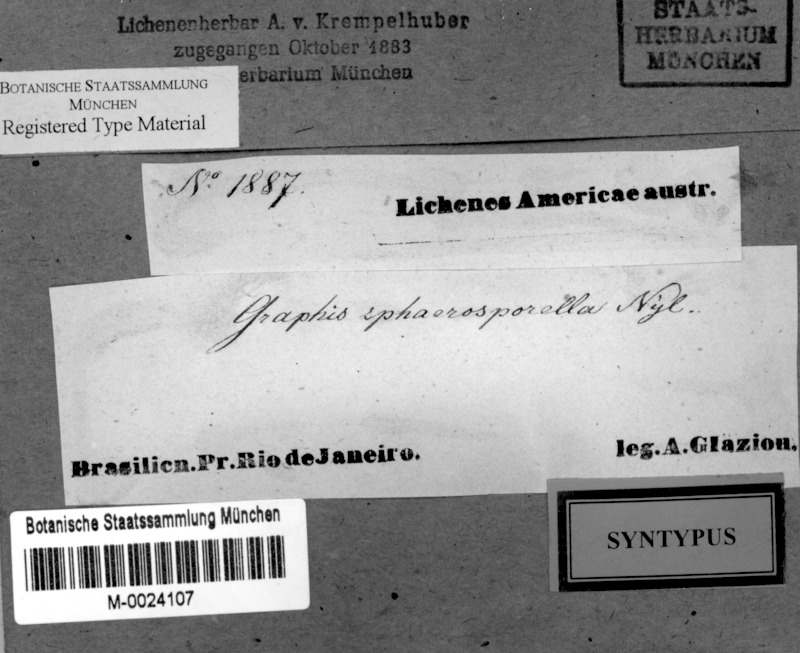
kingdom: Fungi
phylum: Ascomycota
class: Lecanoromycetes
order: Ostropales
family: Graphidaceae
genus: Platythecium
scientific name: Platythecium sphaerosporellum
